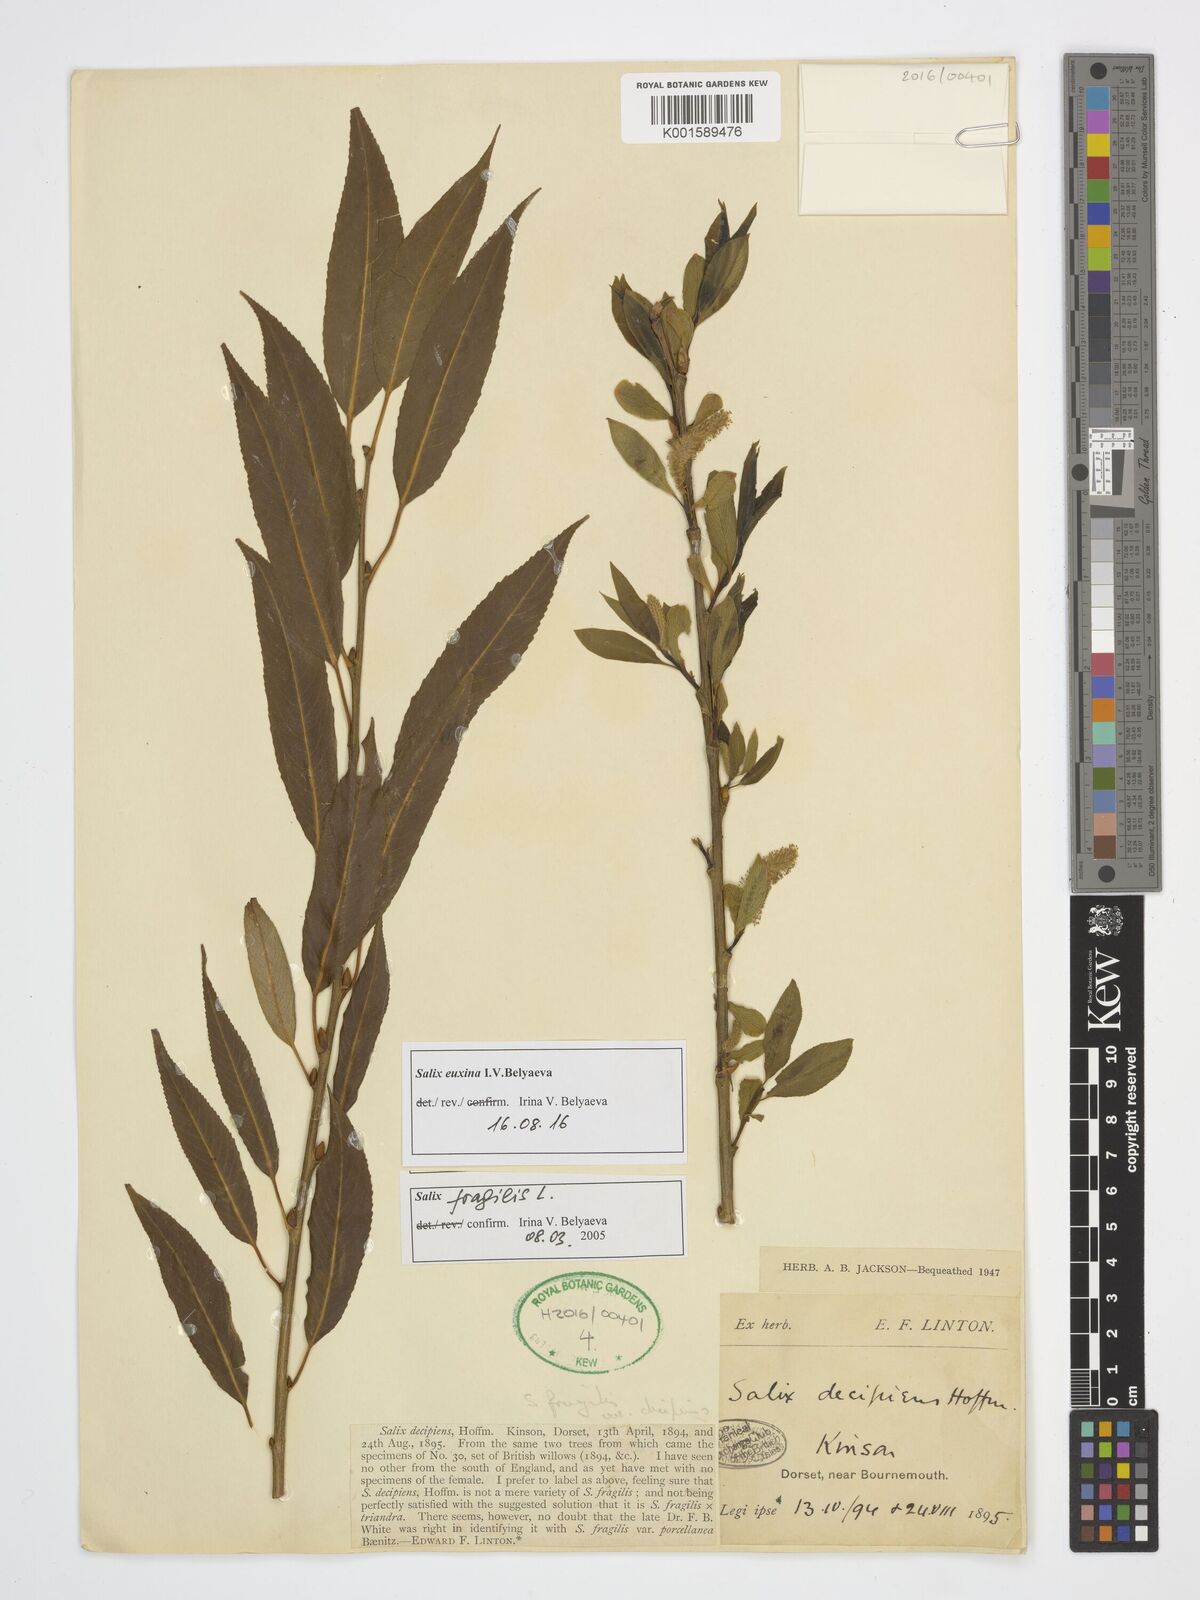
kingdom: Plantae
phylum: Tracheophyta
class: Magnoliopsida
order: Malpighiales
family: Salicaceae
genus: Salix
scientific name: Salix alba
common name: White willow
